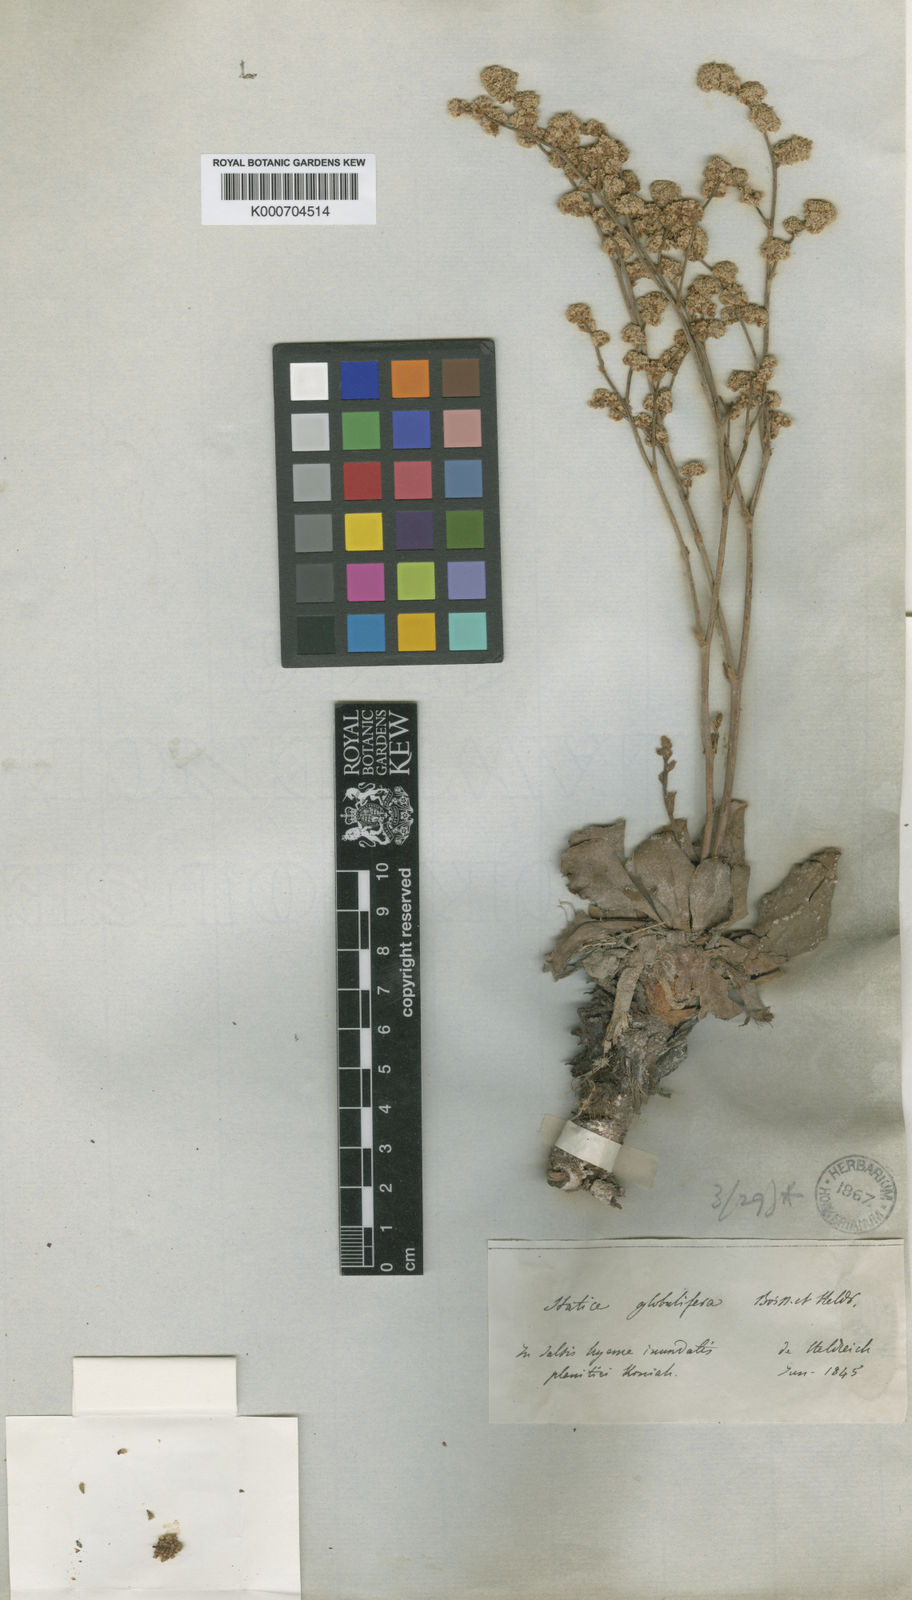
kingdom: Plantae
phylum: Tracheophyta
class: Magnoliopsida
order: Caryophyllales
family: Plumbaginaceae
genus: Limonium
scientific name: Limonium globuliferum
